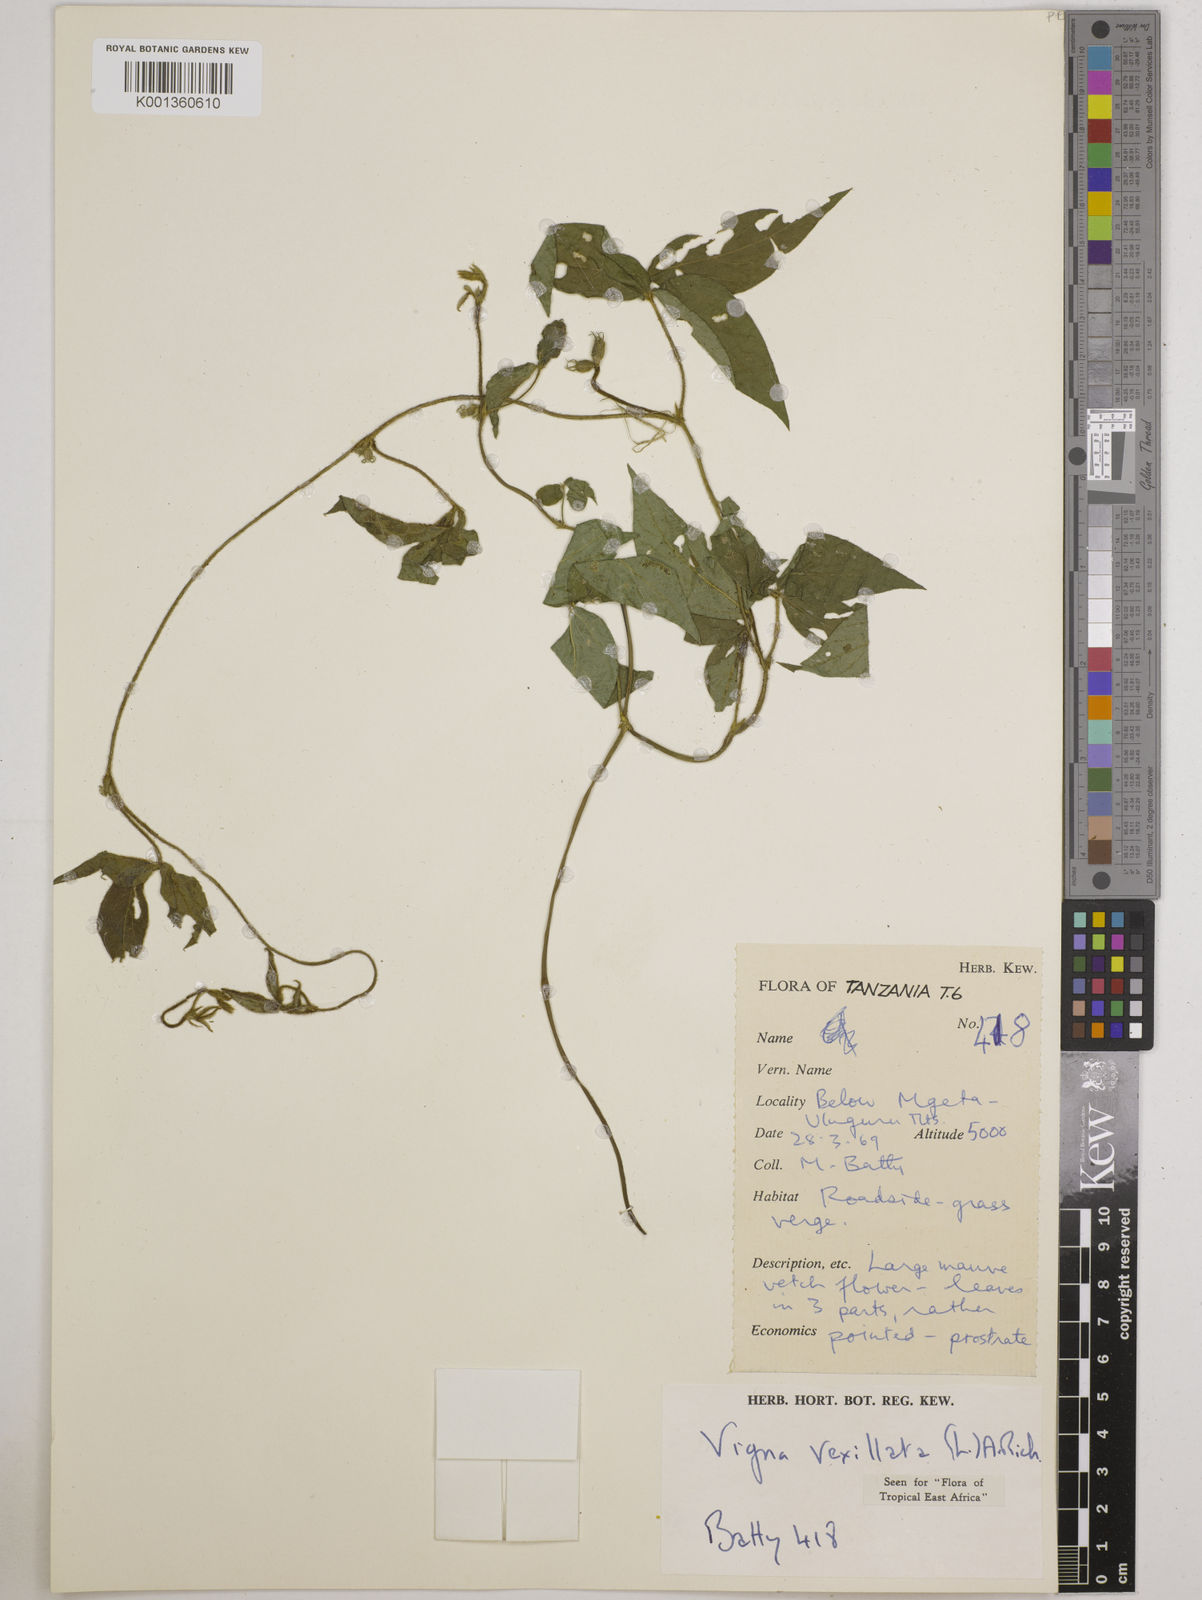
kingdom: Plantae
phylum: Tracheophyta
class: Magnoliopsida
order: Fabales
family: Fabaceae
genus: Vigna
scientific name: Vigna vexillata
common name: Zombi pea
